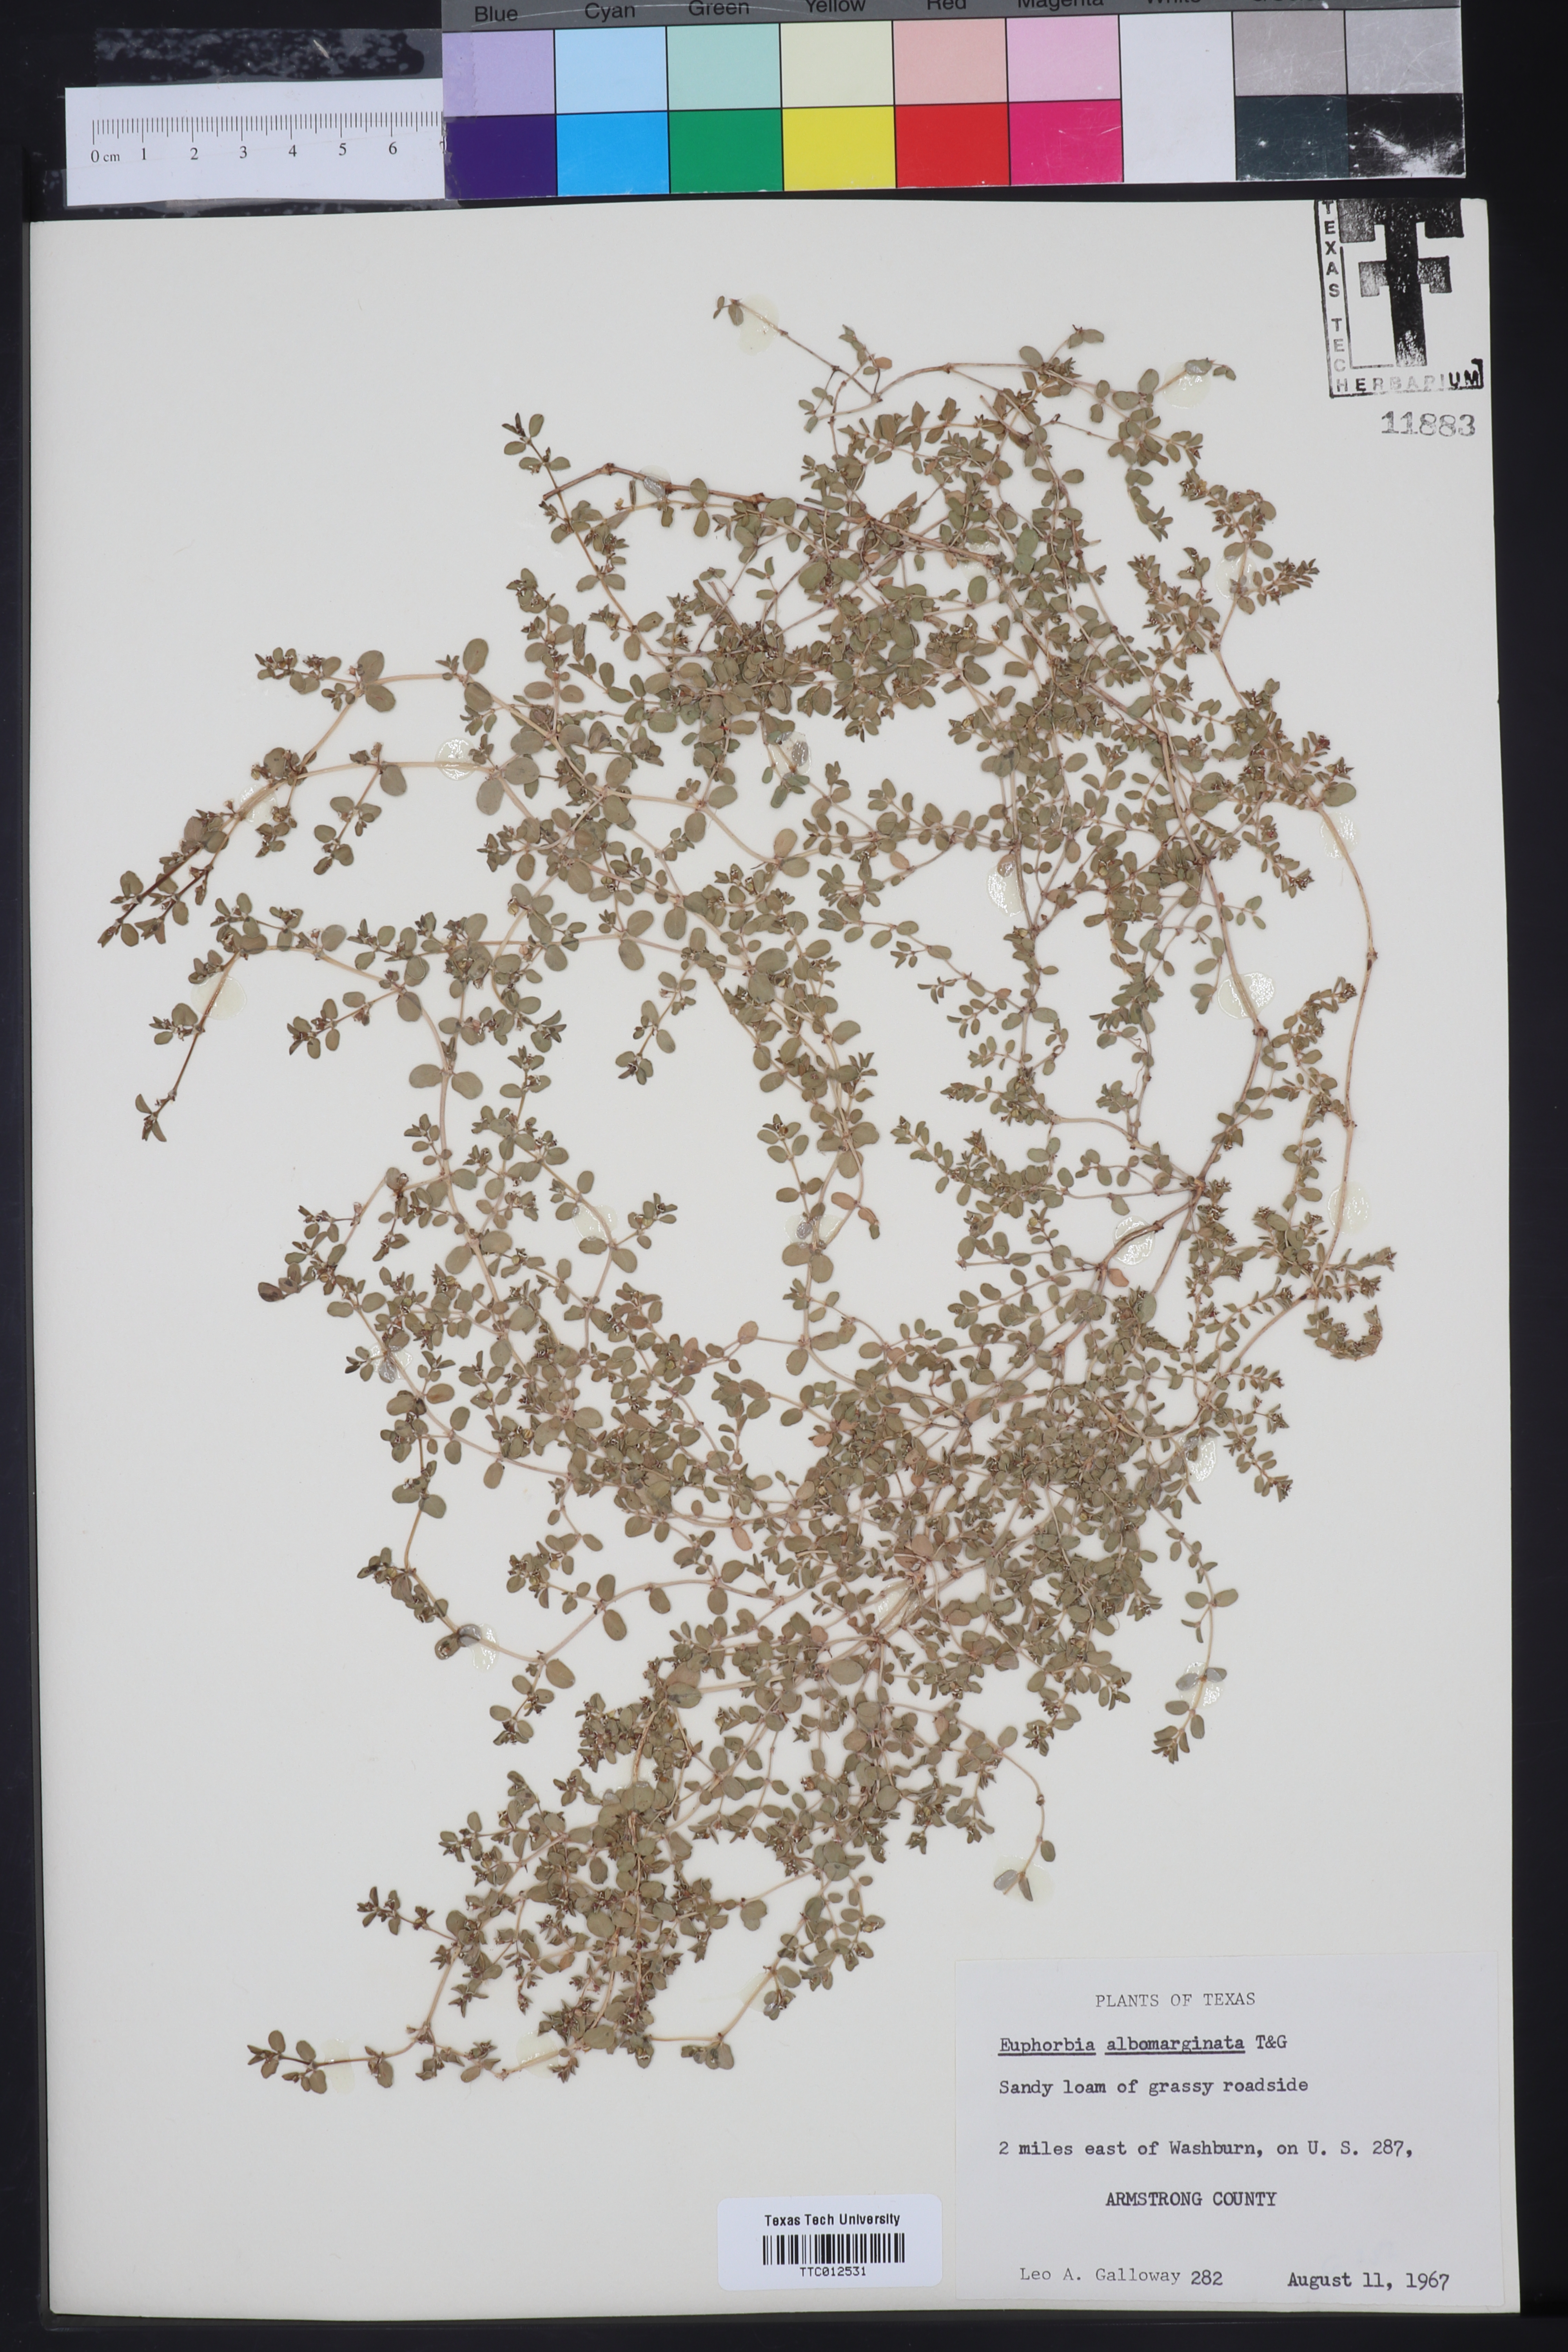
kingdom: Plantae
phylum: Tracheophyta
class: Magnoliopsida
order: Malpighiales
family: Euphorbiaceae
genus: Euphorbia
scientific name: Euphorbia albomarginata
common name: Whitemargin sandmat
